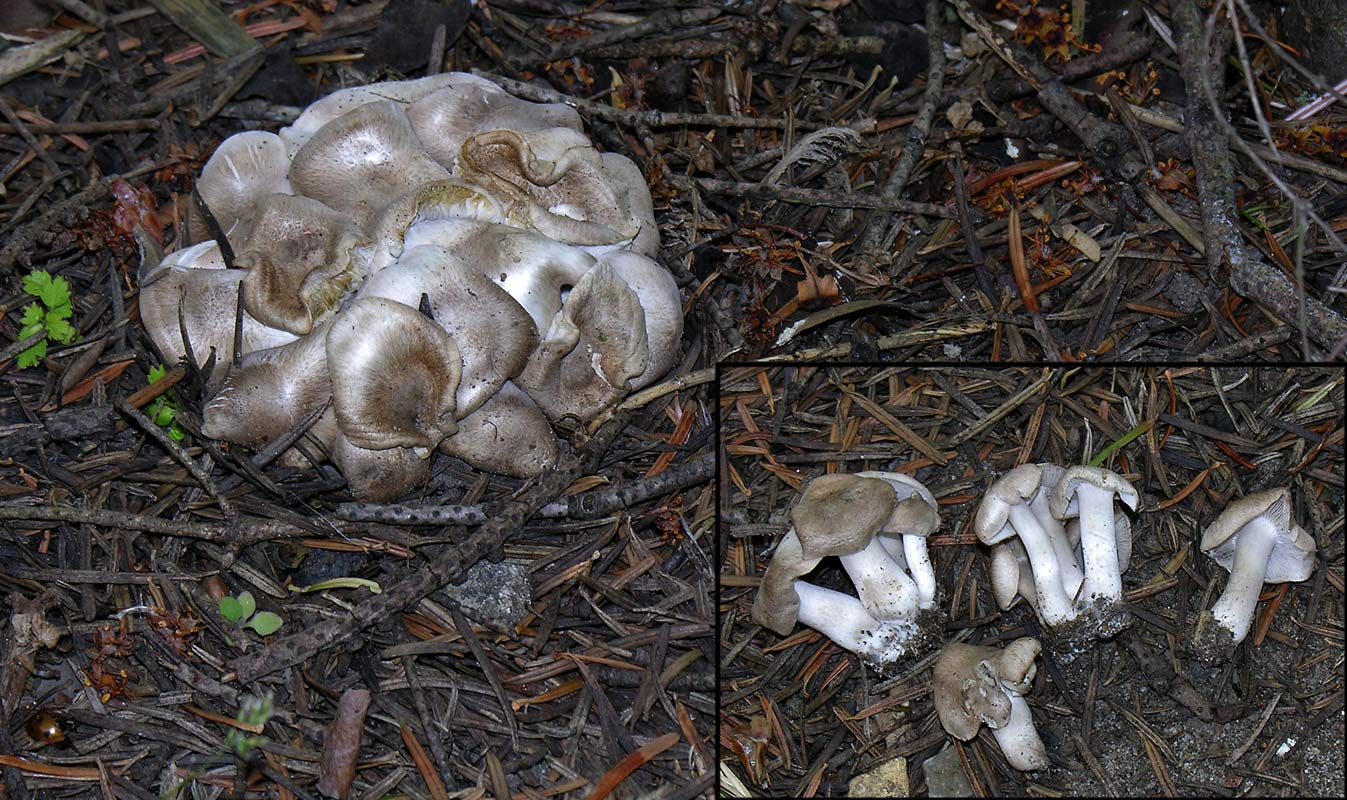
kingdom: Fungi
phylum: Basidiomycota
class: Agaricomycetes
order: Agaricales
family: Lyophyllaceae
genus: Lyophyllum
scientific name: Lyophyllum decastes
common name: røggrå gråblad
